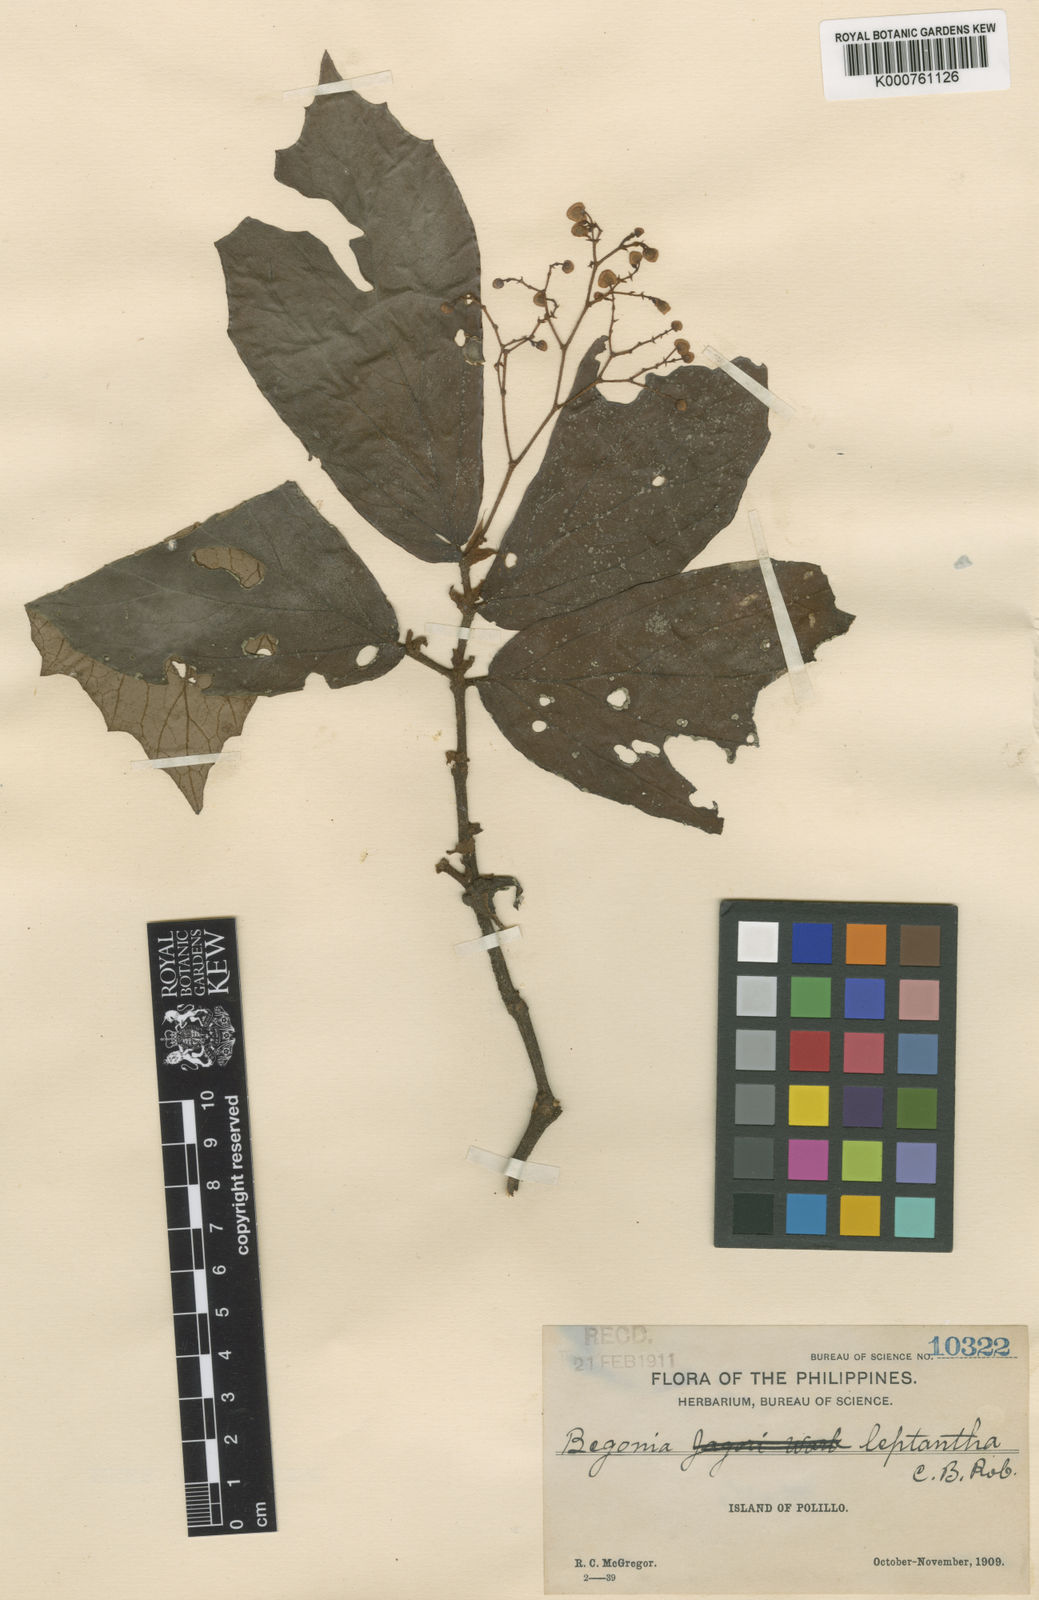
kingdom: Plantae
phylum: Tracheophyta
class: Magnoliopsida
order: Cucurbitales
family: Begoniaceae
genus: Begonia
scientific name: Begonia leptantha
